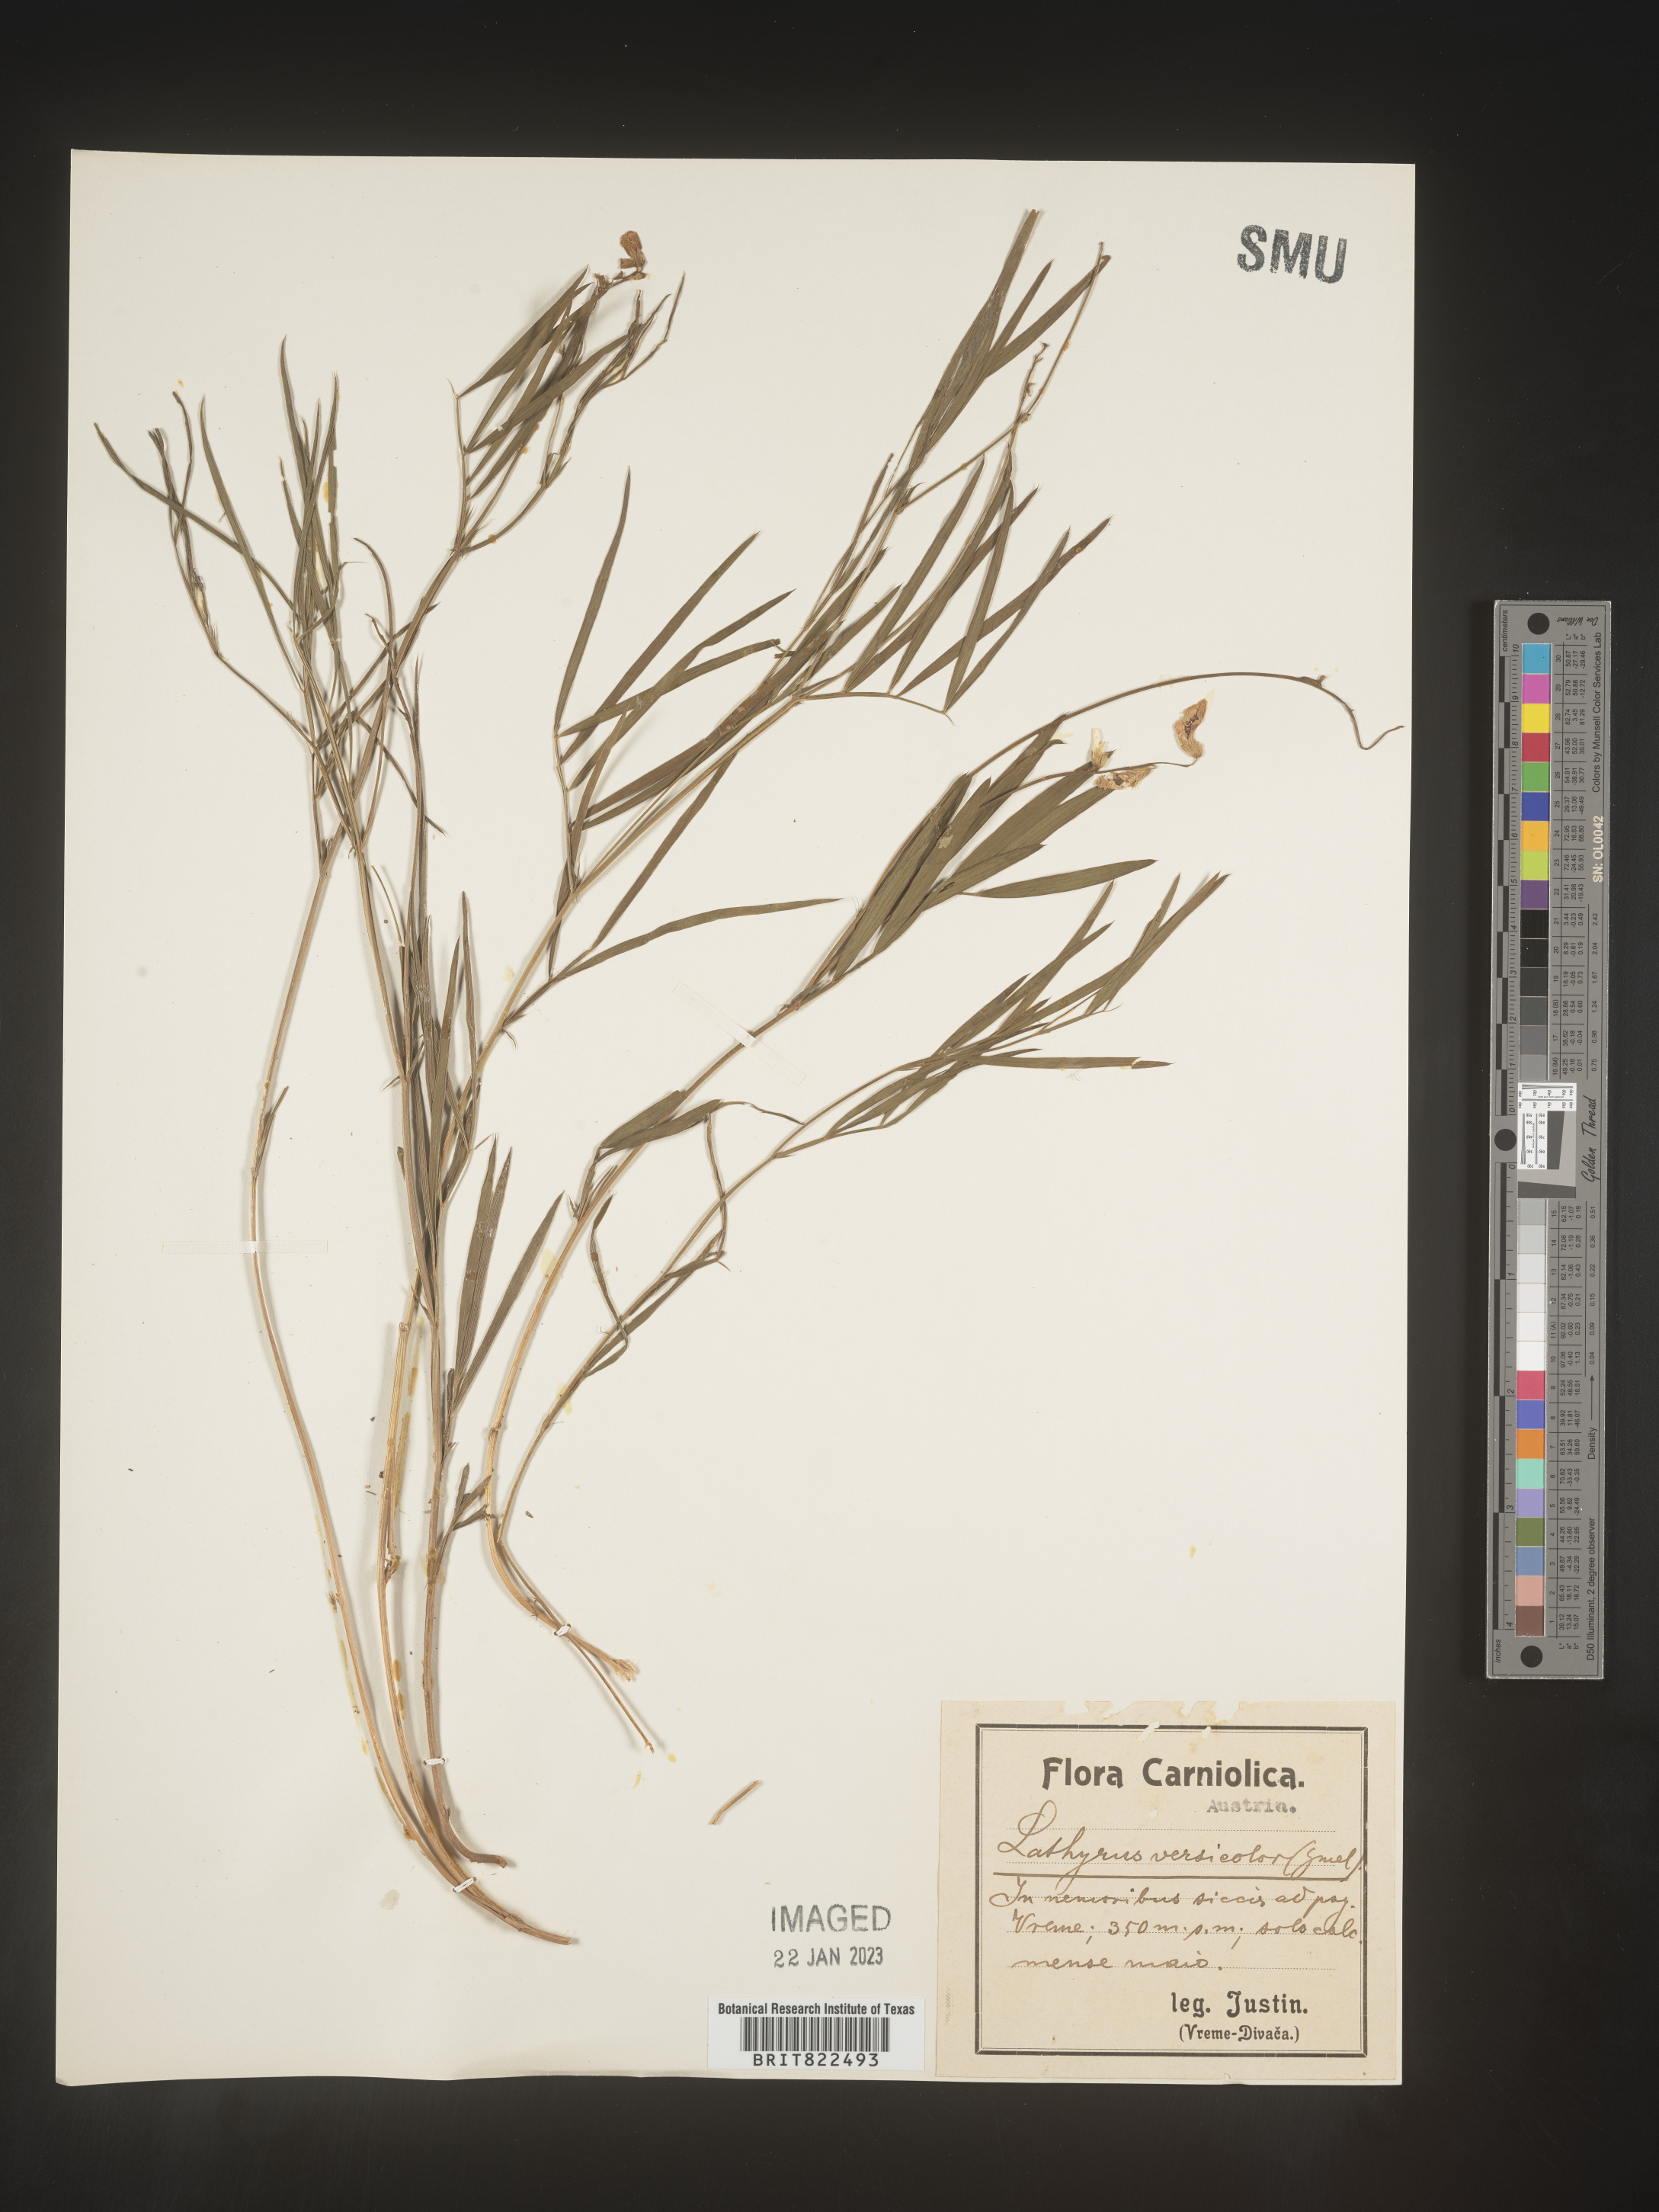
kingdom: Plantae
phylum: Tracheophyta
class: Magnoliopsida
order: Fabales
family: Fabaceae
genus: Lathyrus
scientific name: Lathyrus
